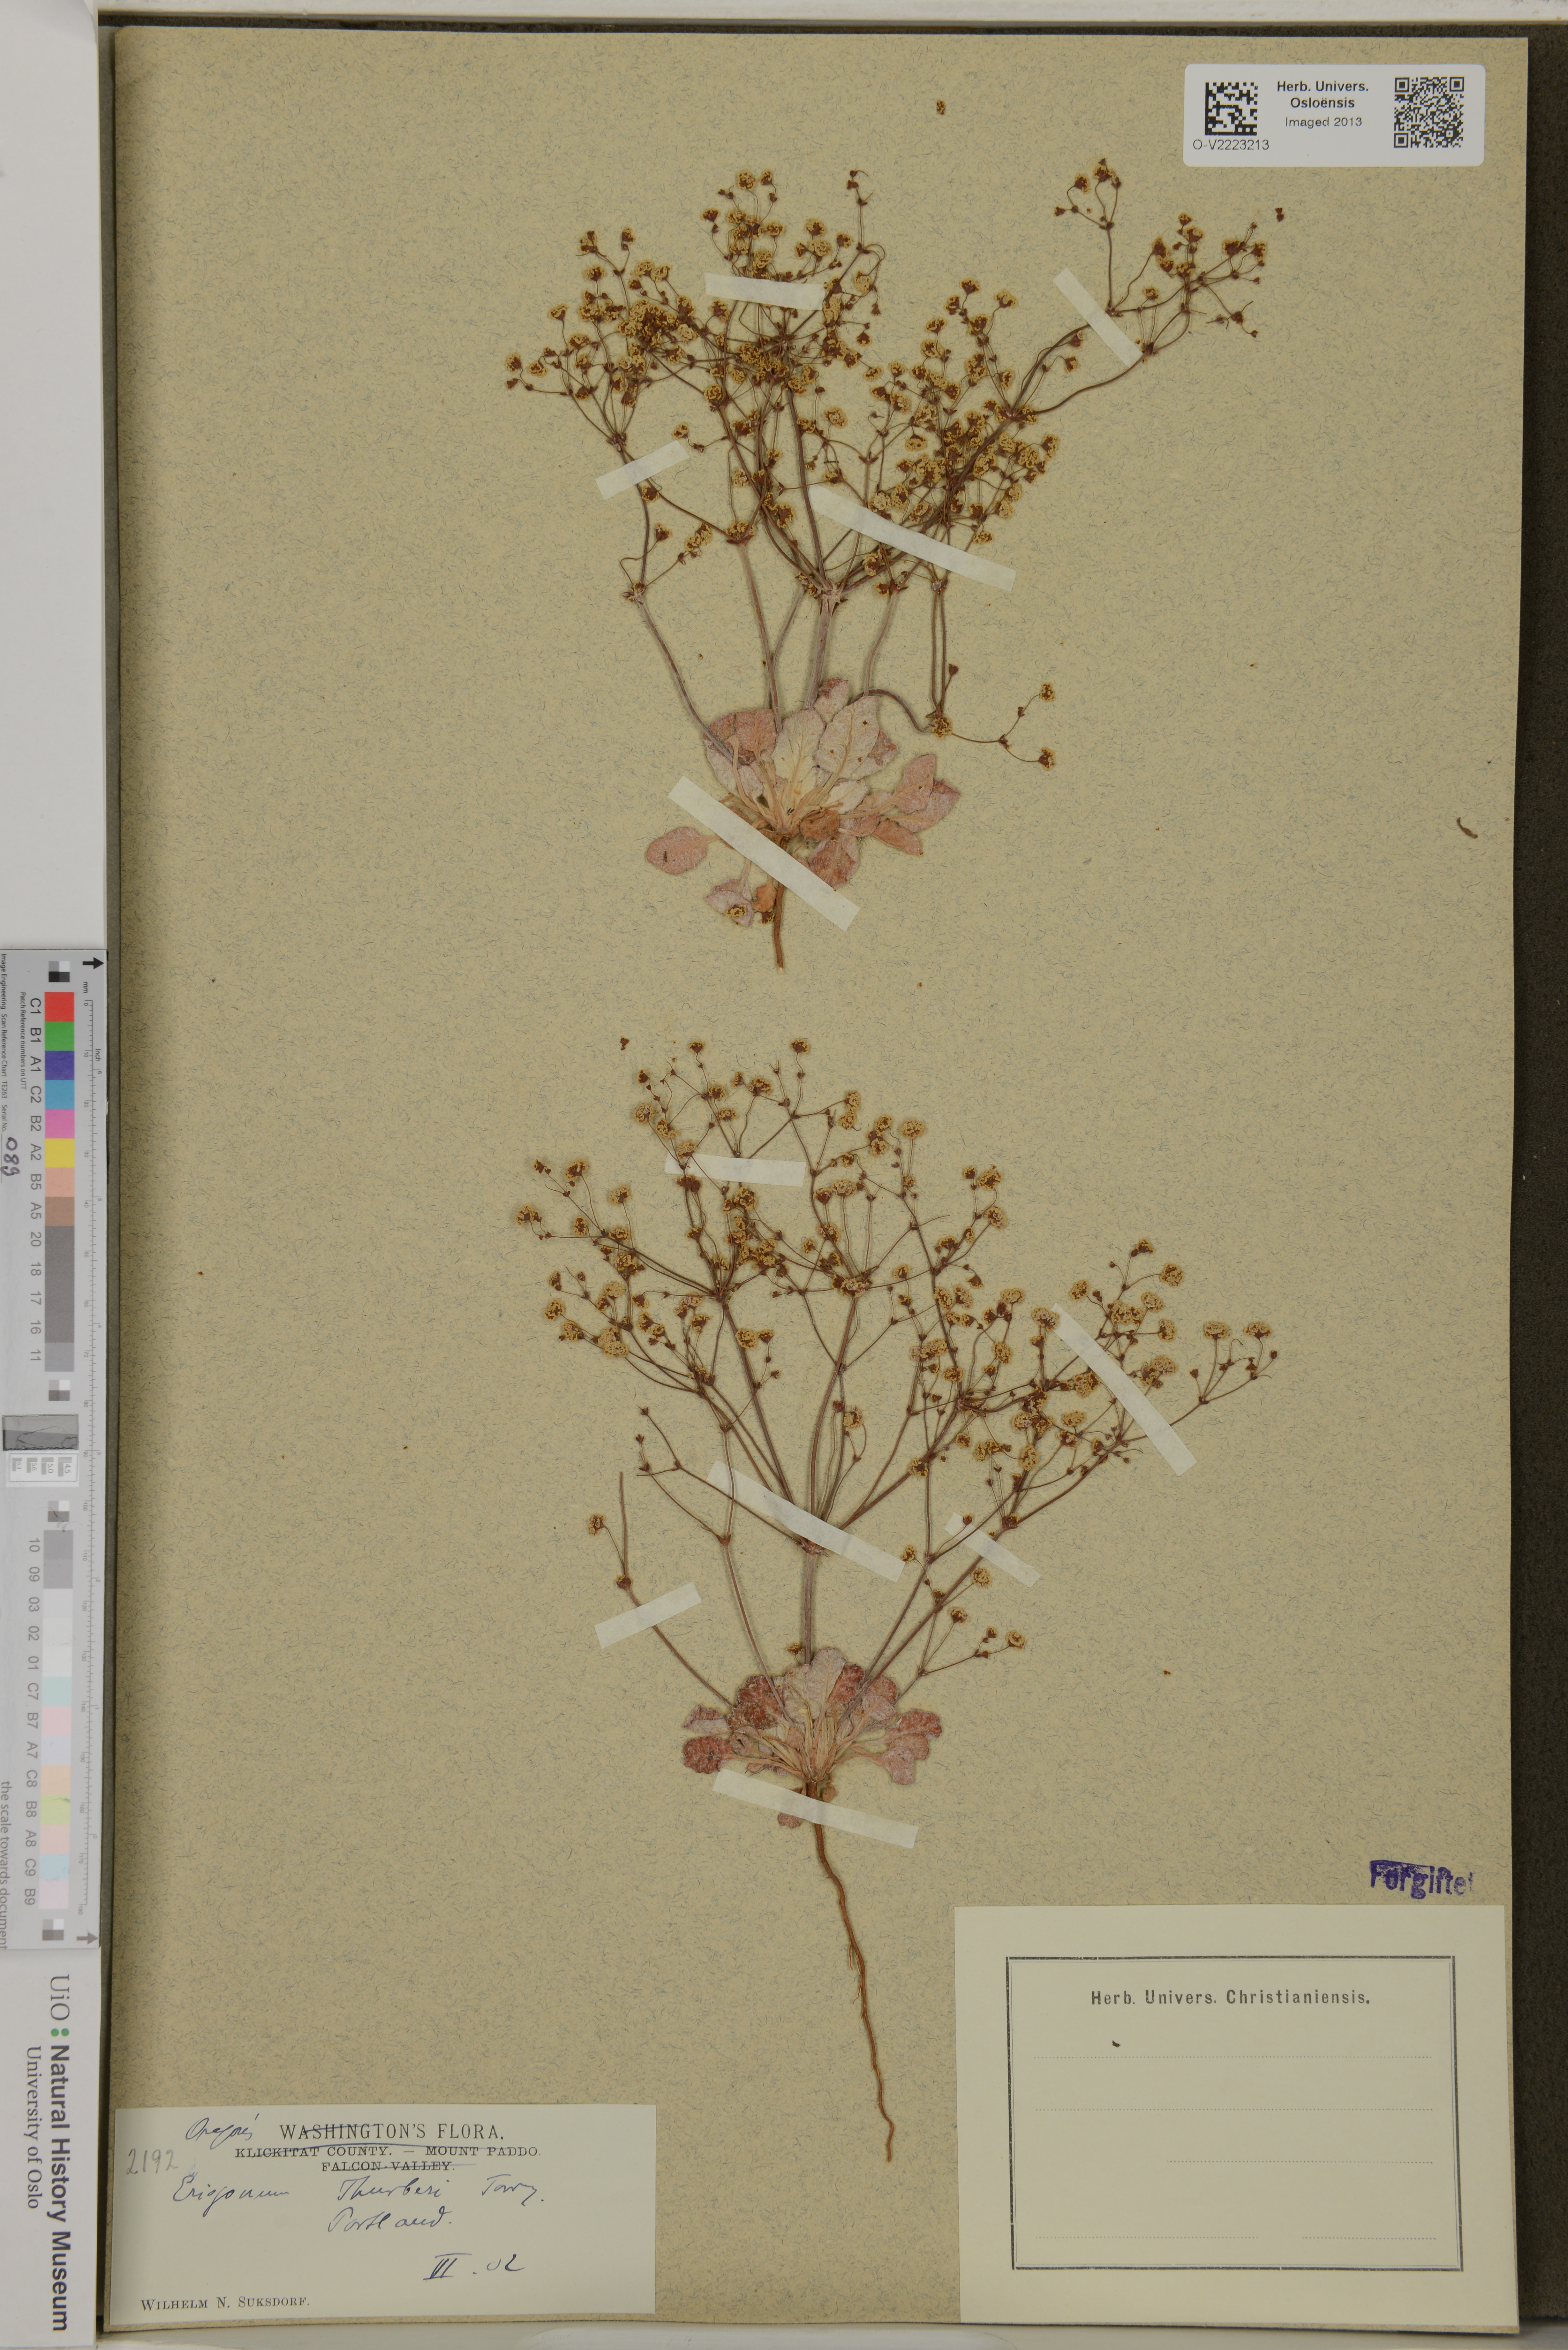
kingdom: Plantae
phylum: Tracheophyta
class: Magnoliopsida
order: Caryophyllales
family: Polygonaceae
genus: Eriogonum
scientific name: Eriogonum thurberi
